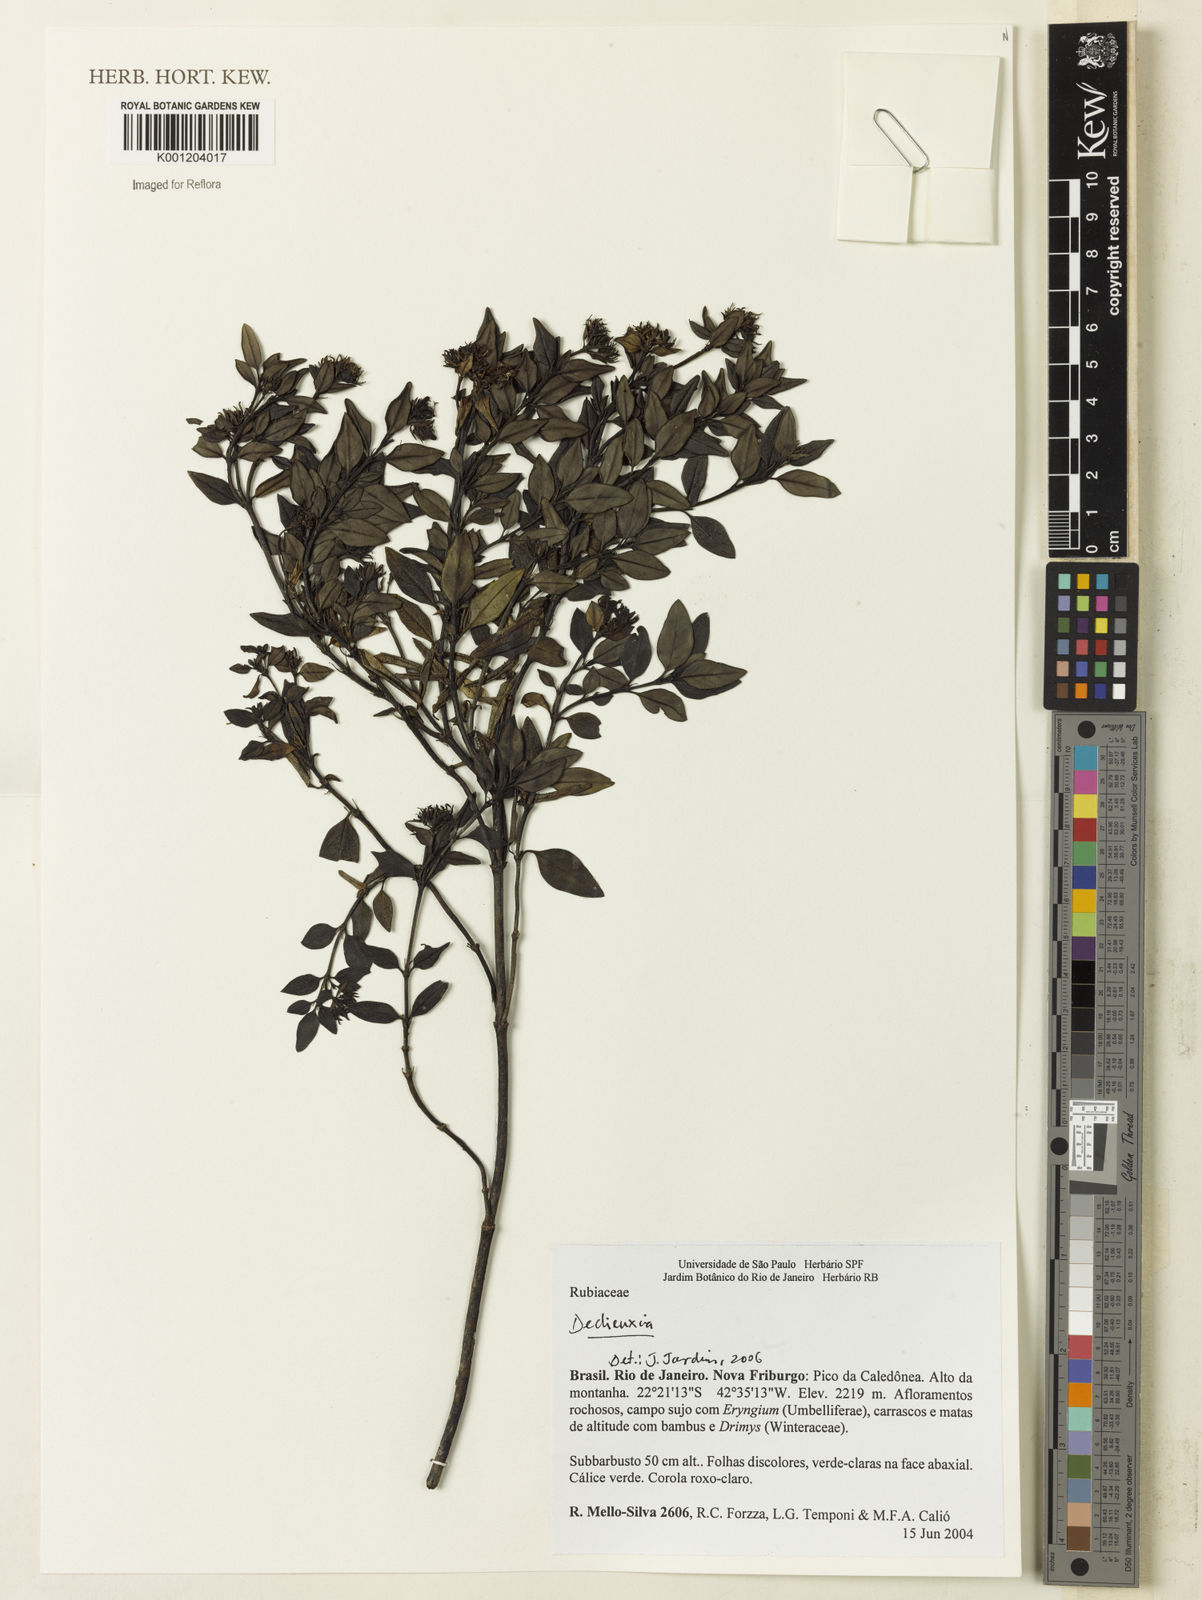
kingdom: Plantae
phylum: Tracheophyta
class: Magnoliopsida
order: Gentianales
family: Rubiaceae
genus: Declieuxia
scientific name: Declieuxia
